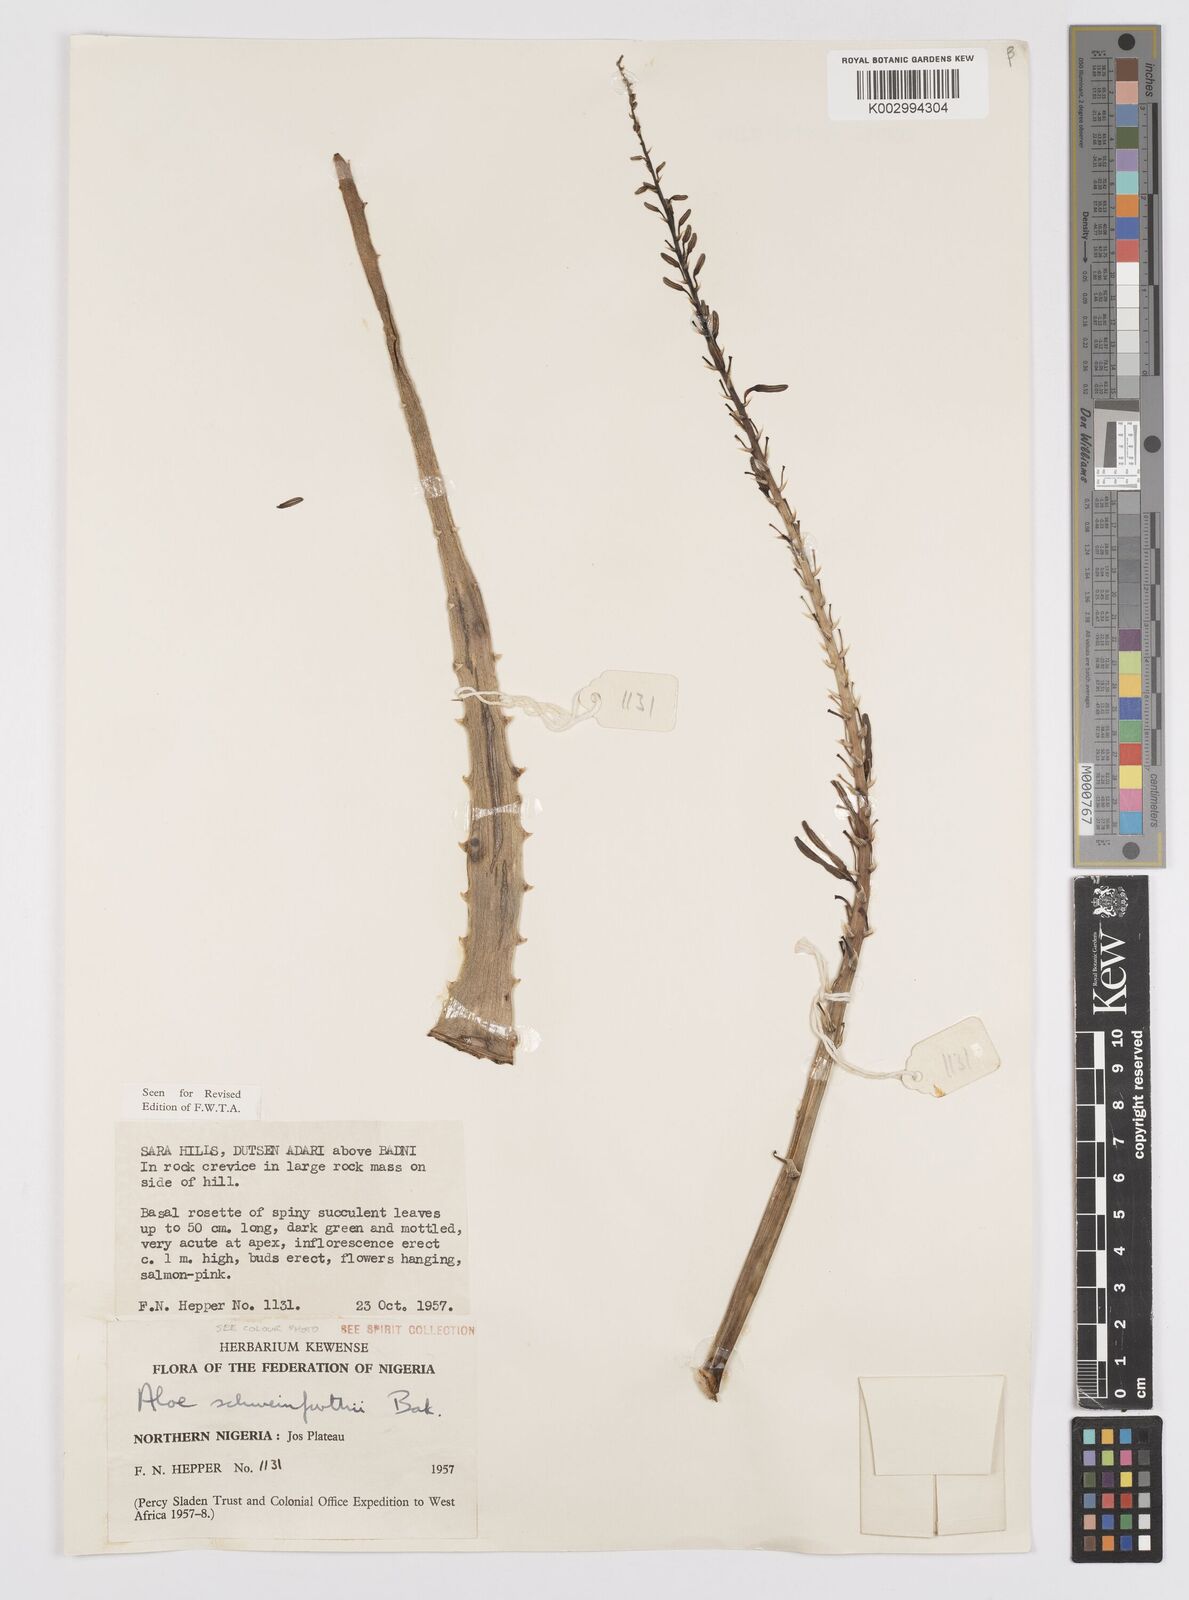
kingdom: Plantae
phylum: Tracheophyta
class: Liliopsida
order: Asparagales
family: Asphodelaceae
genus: Aloe
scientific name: Aloe schweinfurthii
